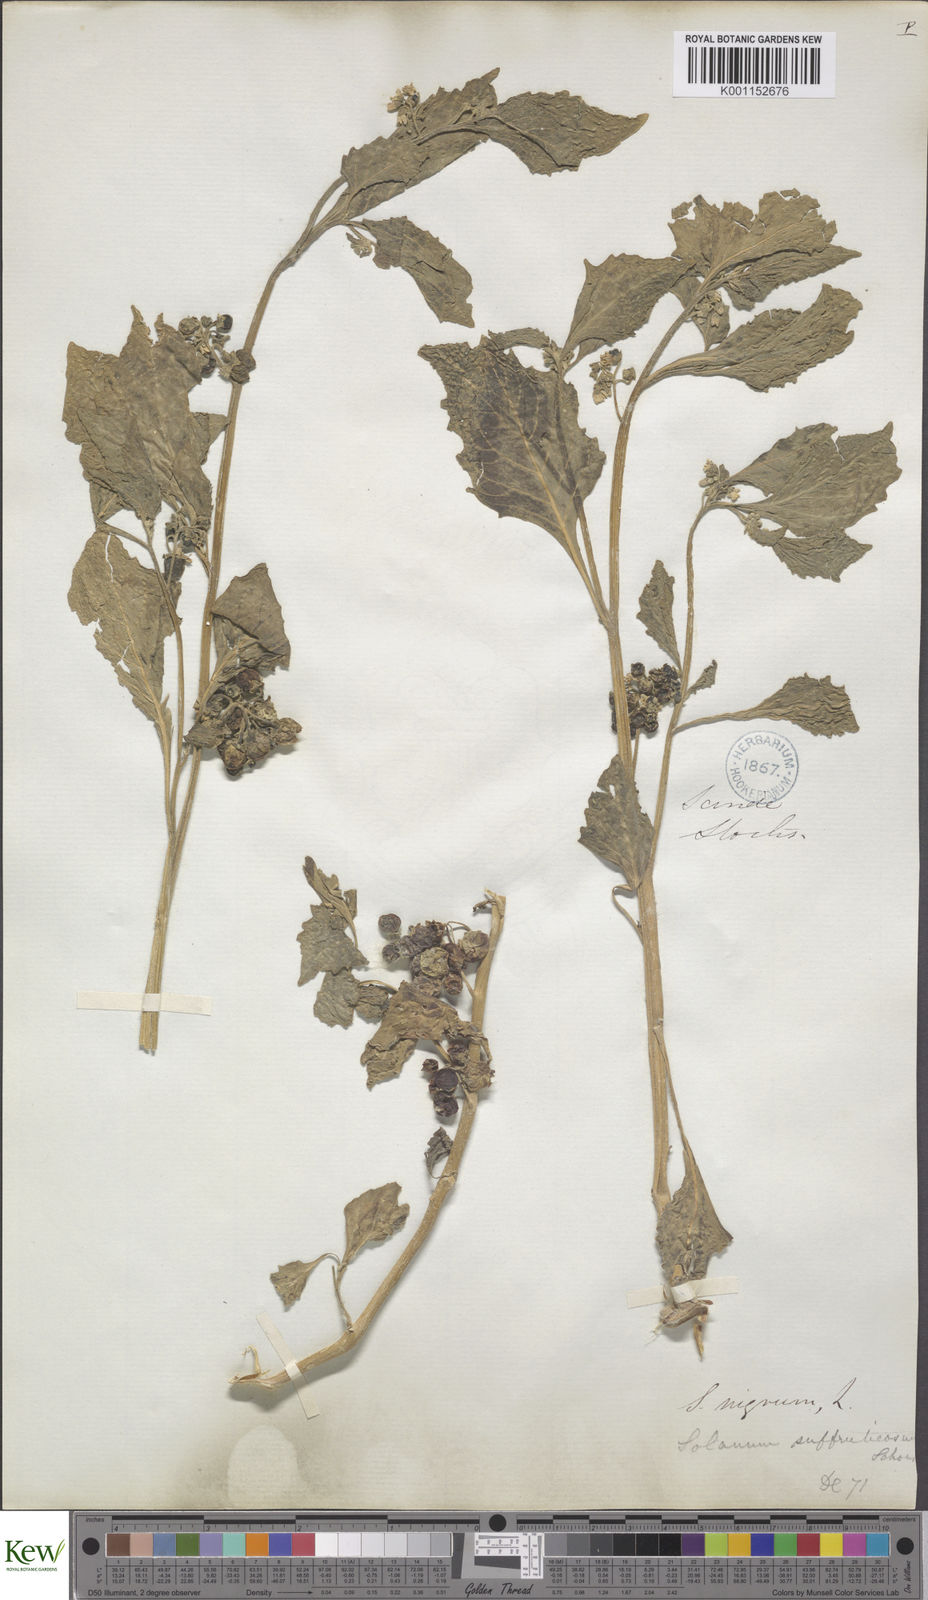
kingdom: Plantae
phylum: Tracheophyta
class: Magnoliopsida
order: Solanales
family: Solanaceae
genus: Solanum
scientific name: Solanum nigrum
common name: Black nightshade
